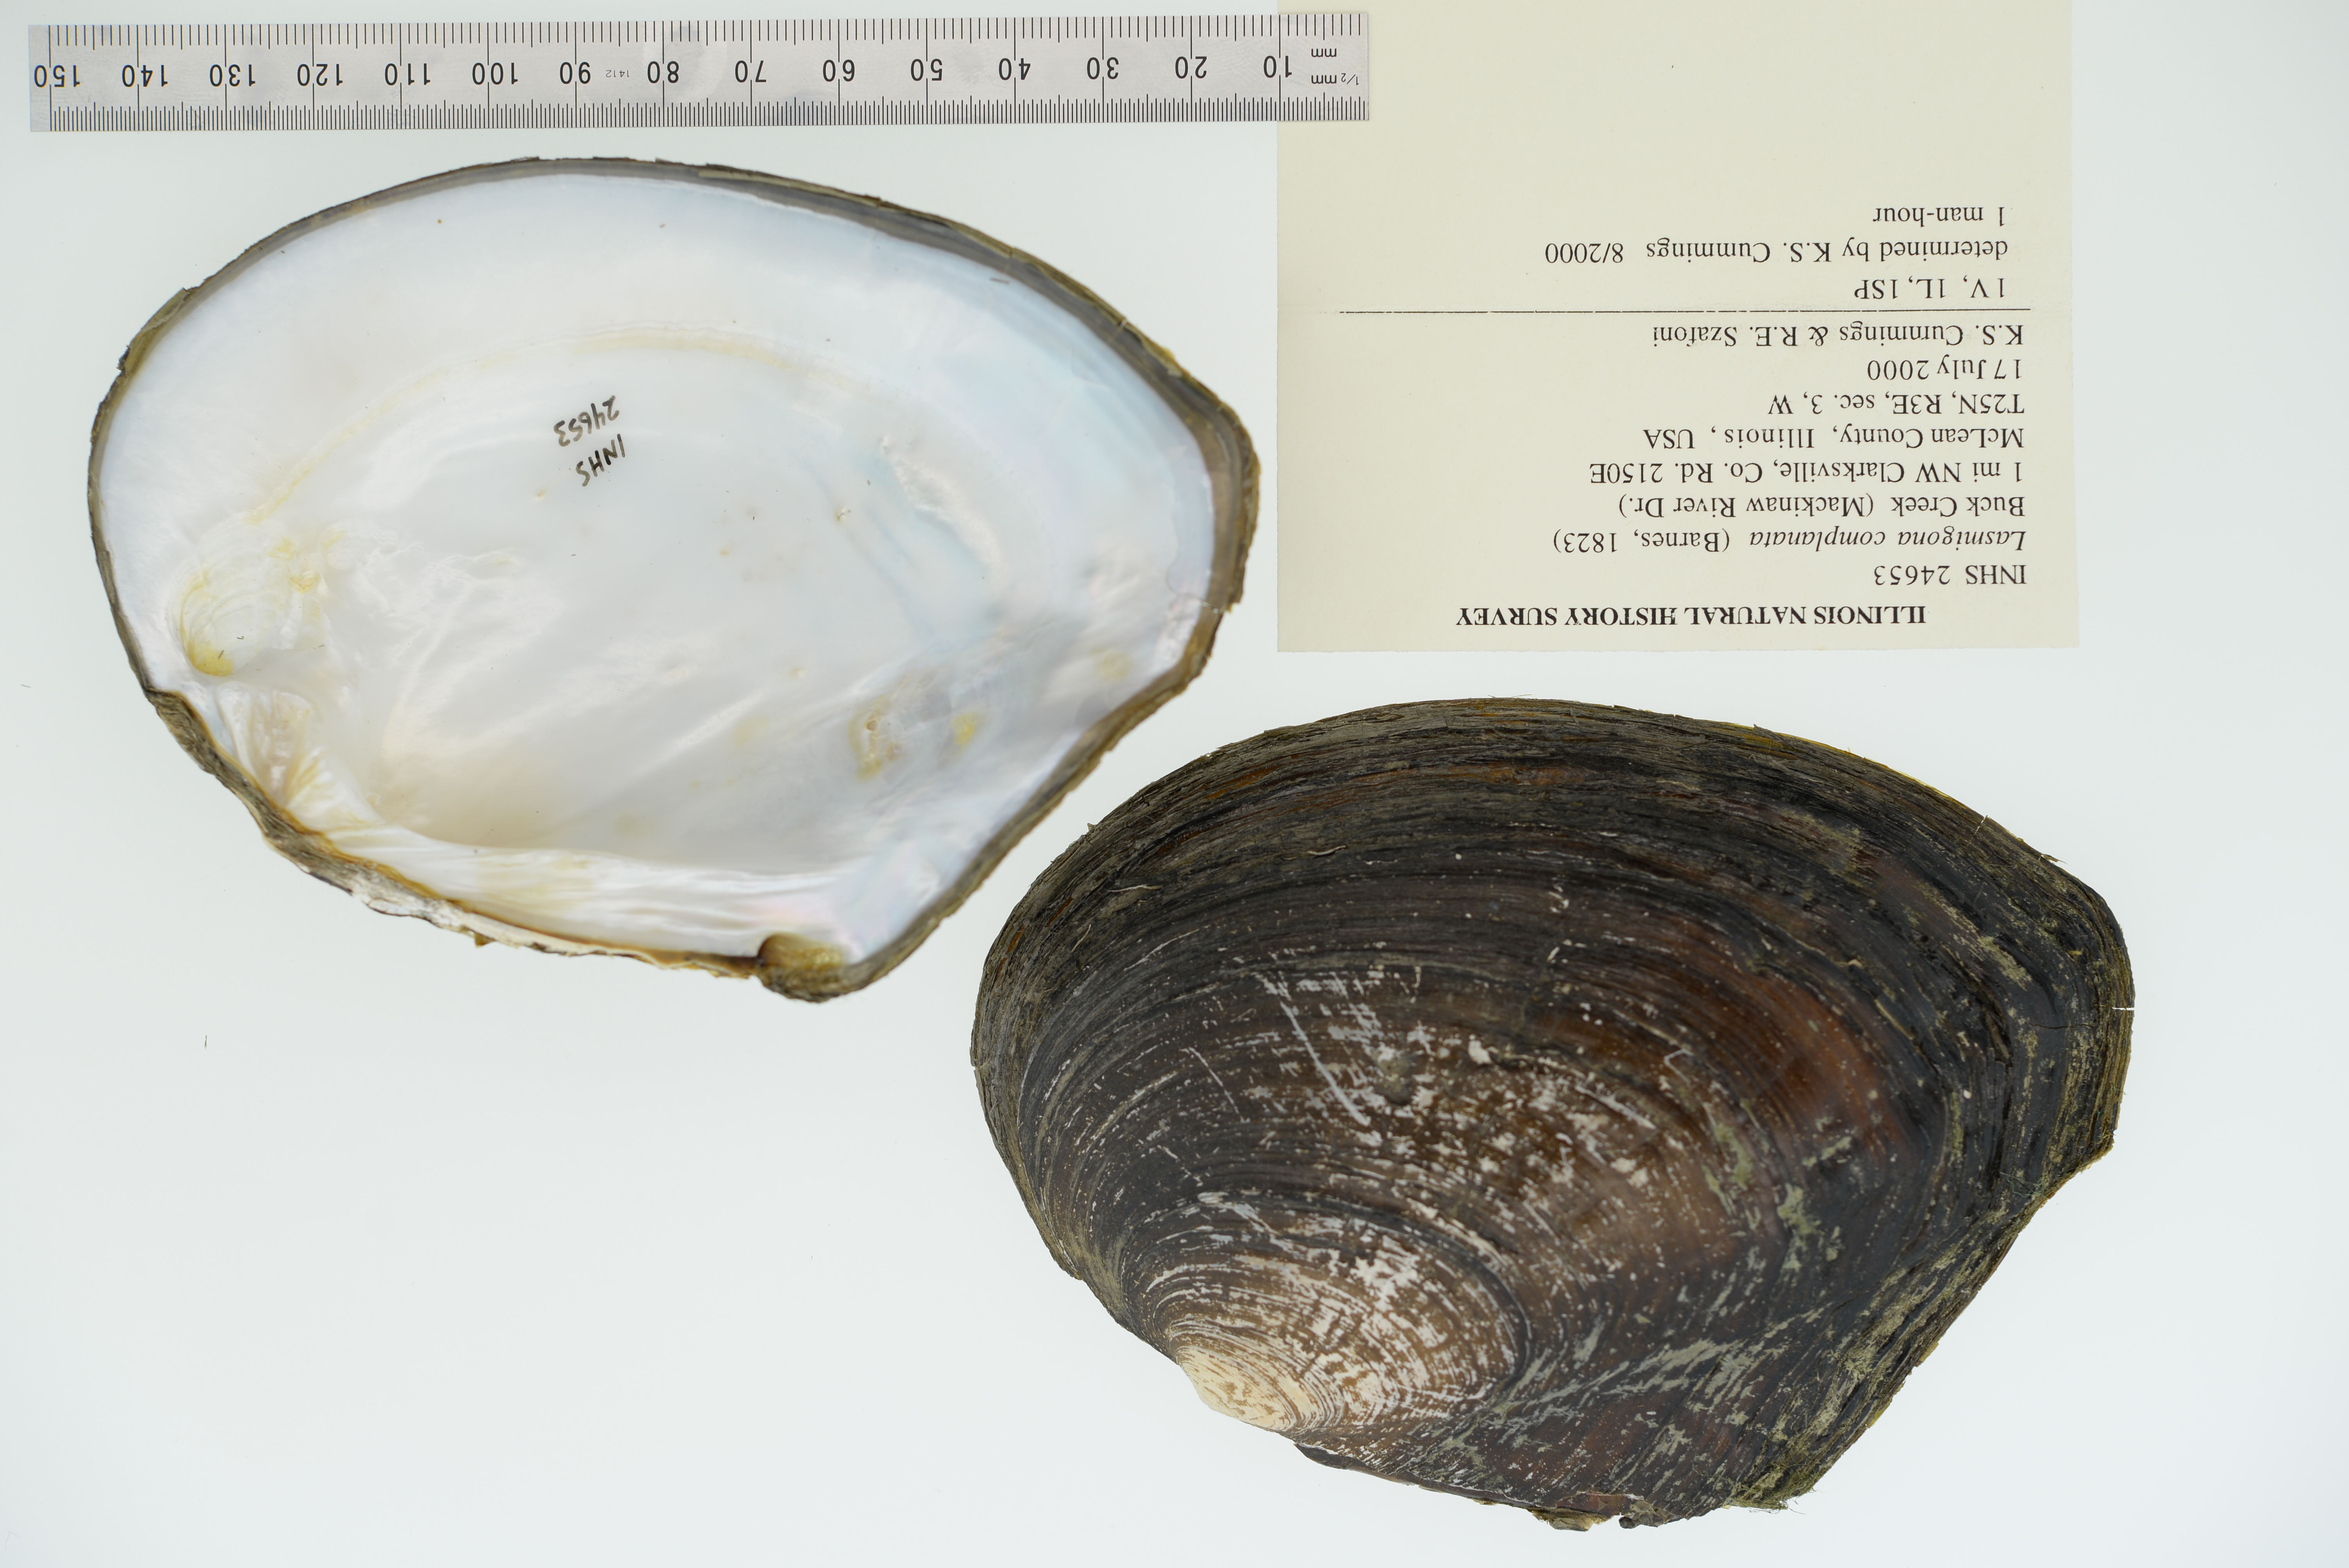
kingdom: Animalia
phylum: Mollusca
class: Bivalvia
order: Unionida
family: Unionidae
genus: Lasmigona
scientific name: Lasmigona complanata
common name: White heelsplitter
